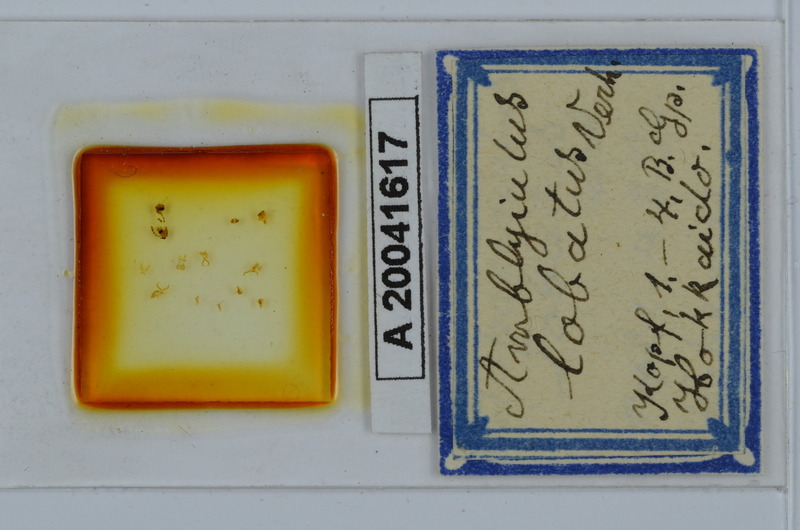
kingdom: Animalia
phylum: Arthropoda
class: Diplopoda
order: Julida
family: Julidae
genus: Japanioiulus
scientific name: Japanioiulus lobatus
